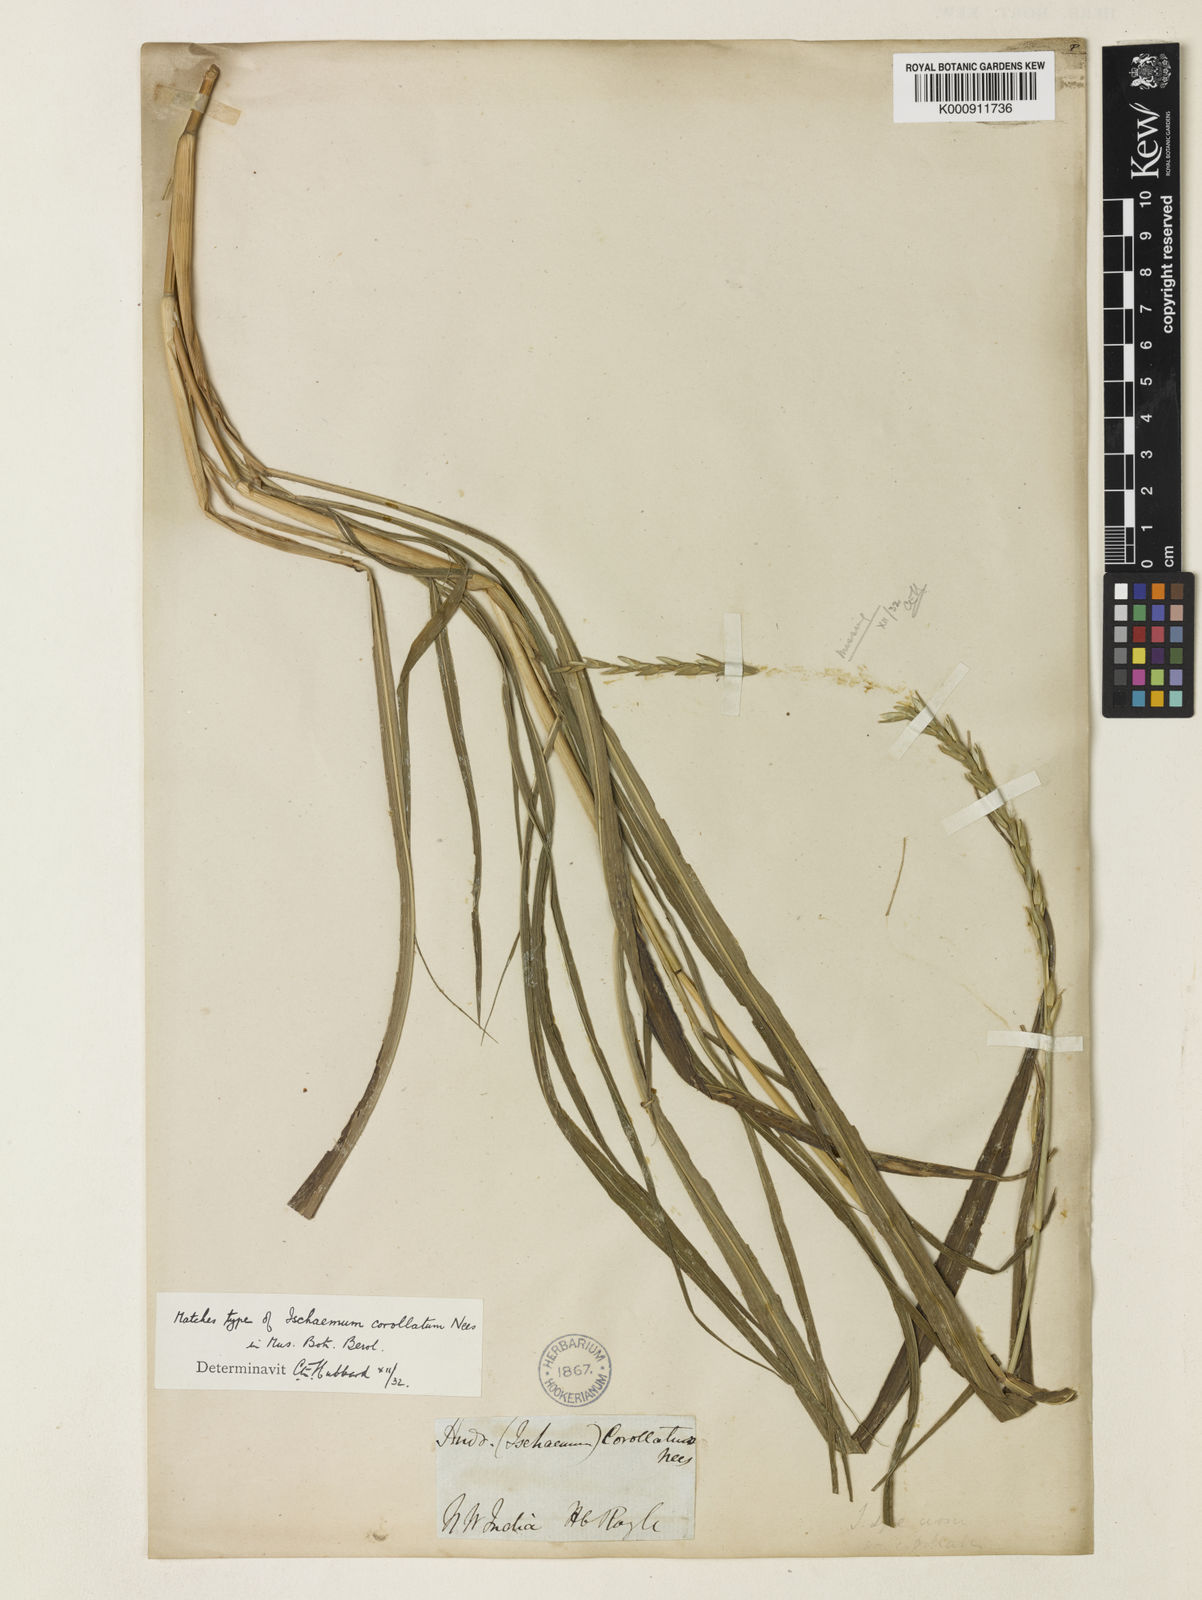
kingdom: Plantae
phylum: Tracheophyta
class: Liliopsida
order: Poales
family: Poaceae
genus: Phacelurus
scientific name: Phacelurus speciosus
